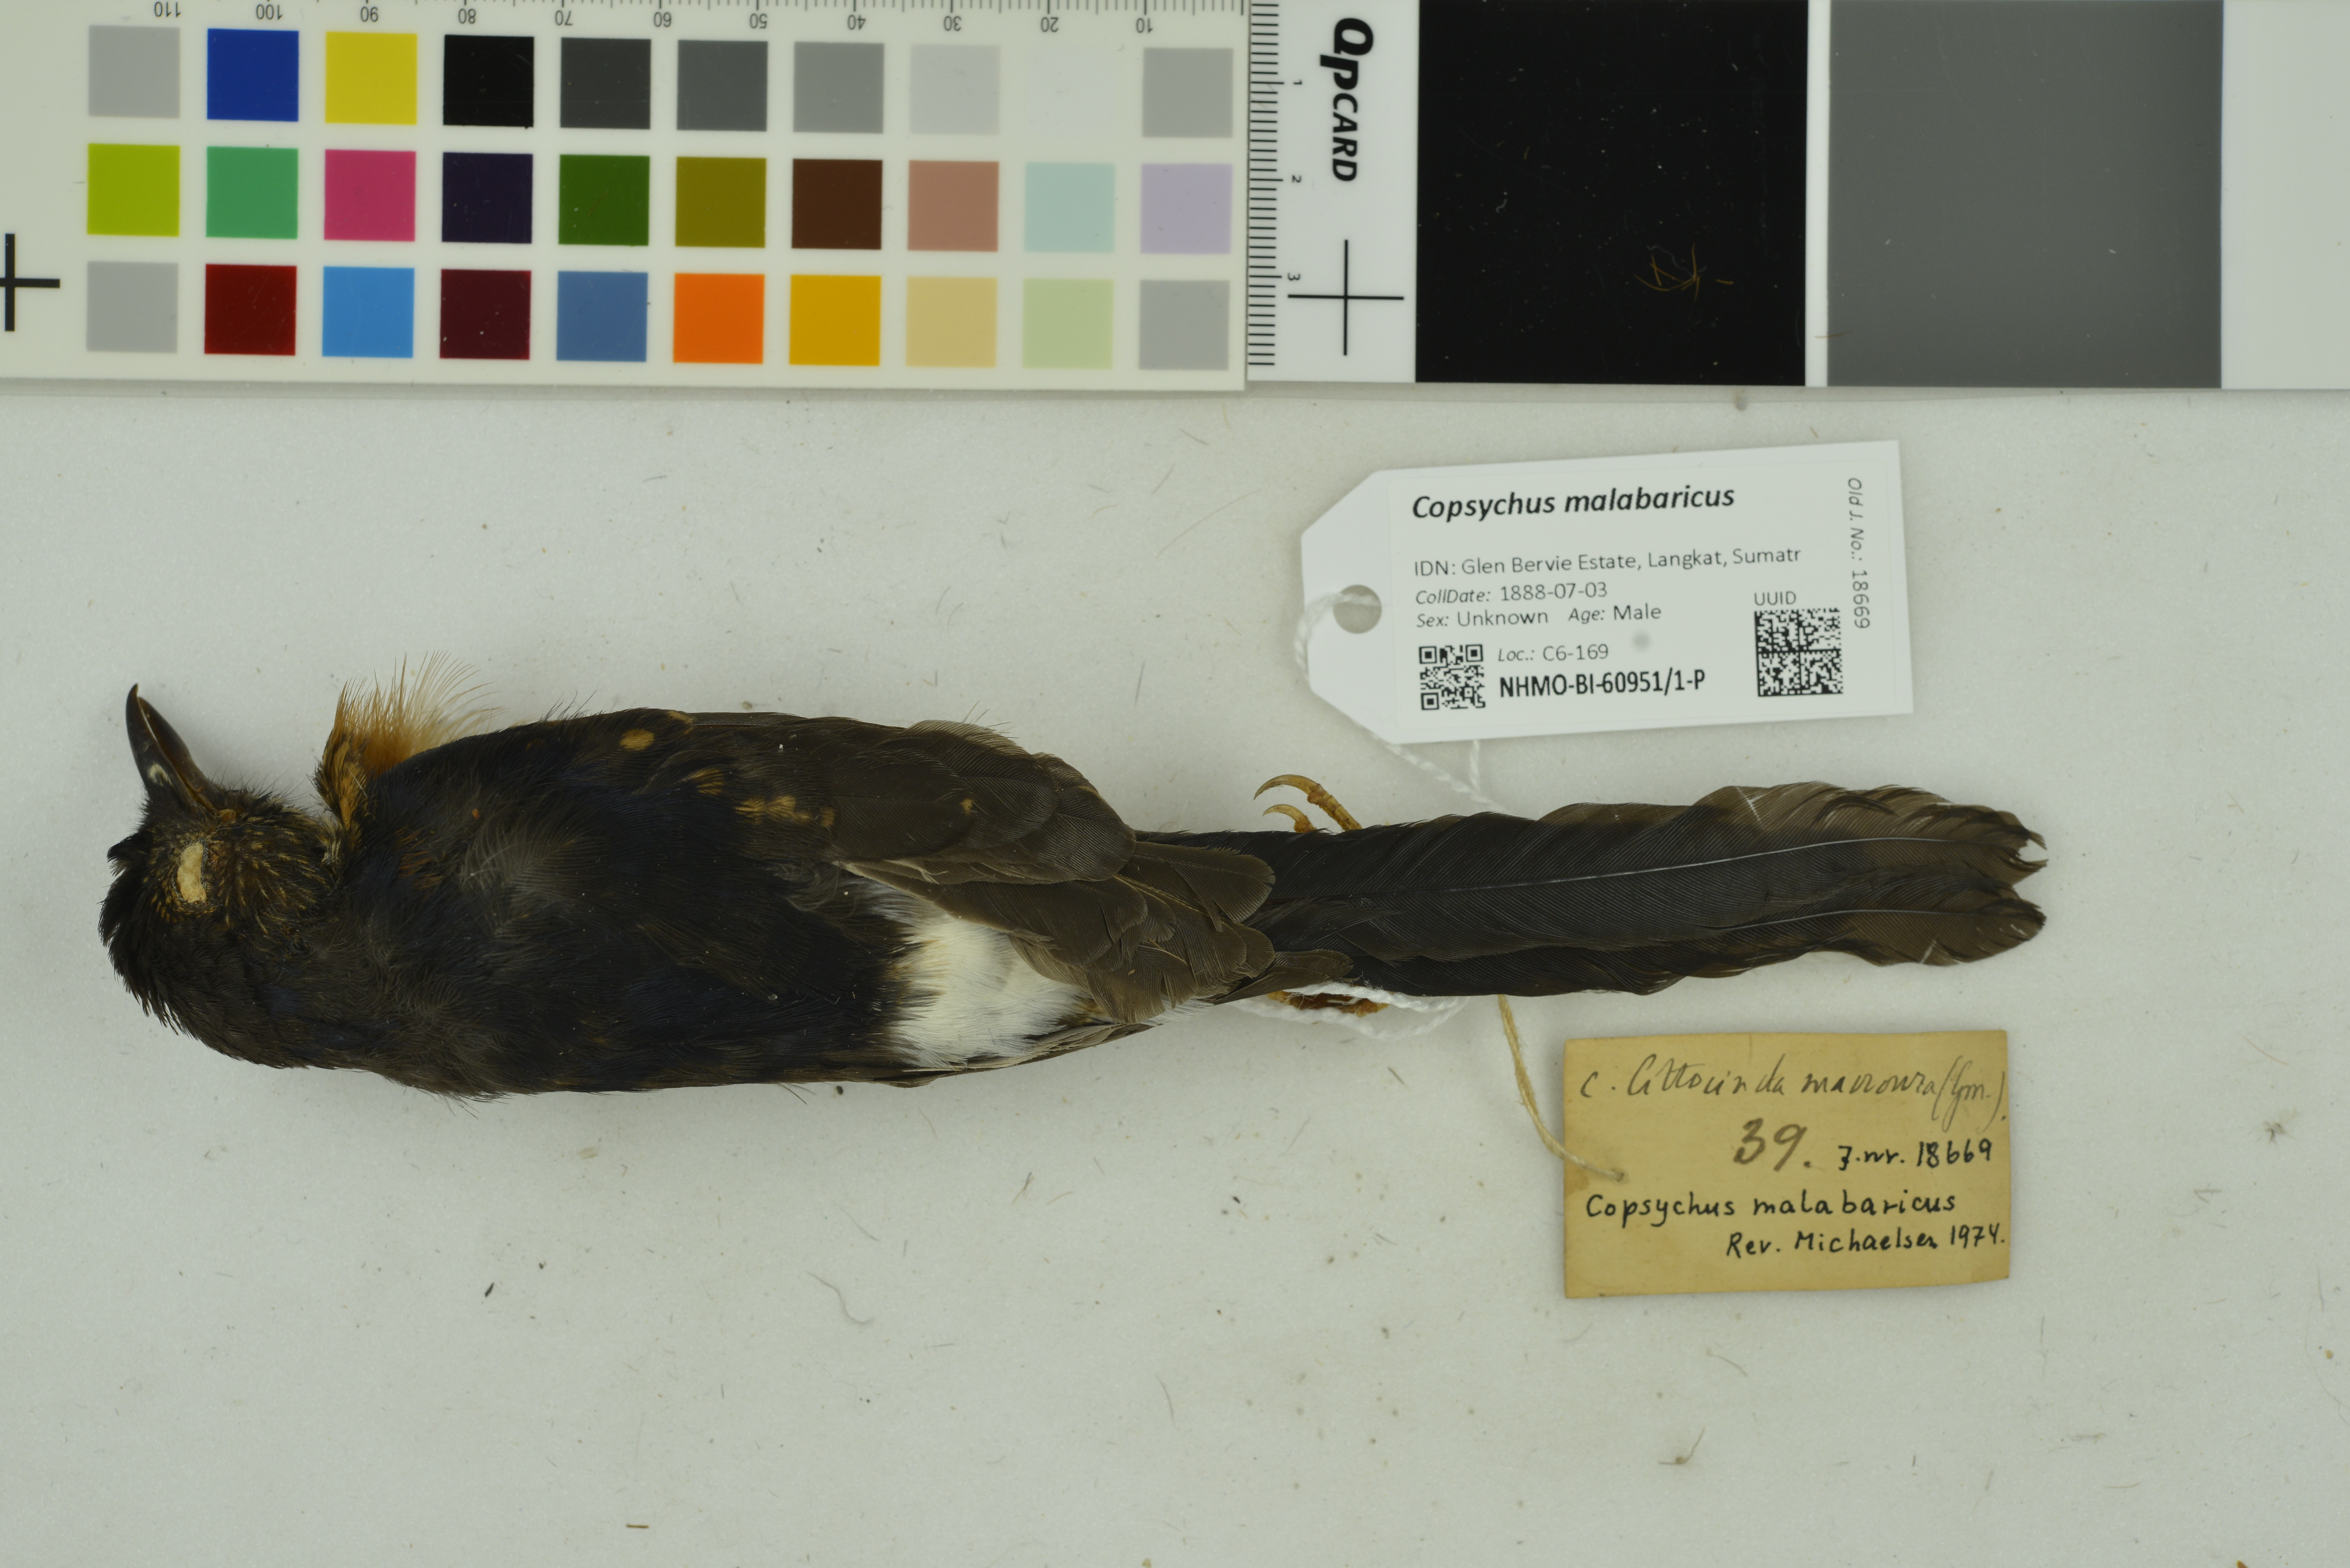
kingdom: Animalia
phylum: Chordata
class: Aves
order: Passeriformes
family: Muscicapidae
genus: Copsychus
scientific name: Copsychus malabaricus
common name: White-rumped shama
